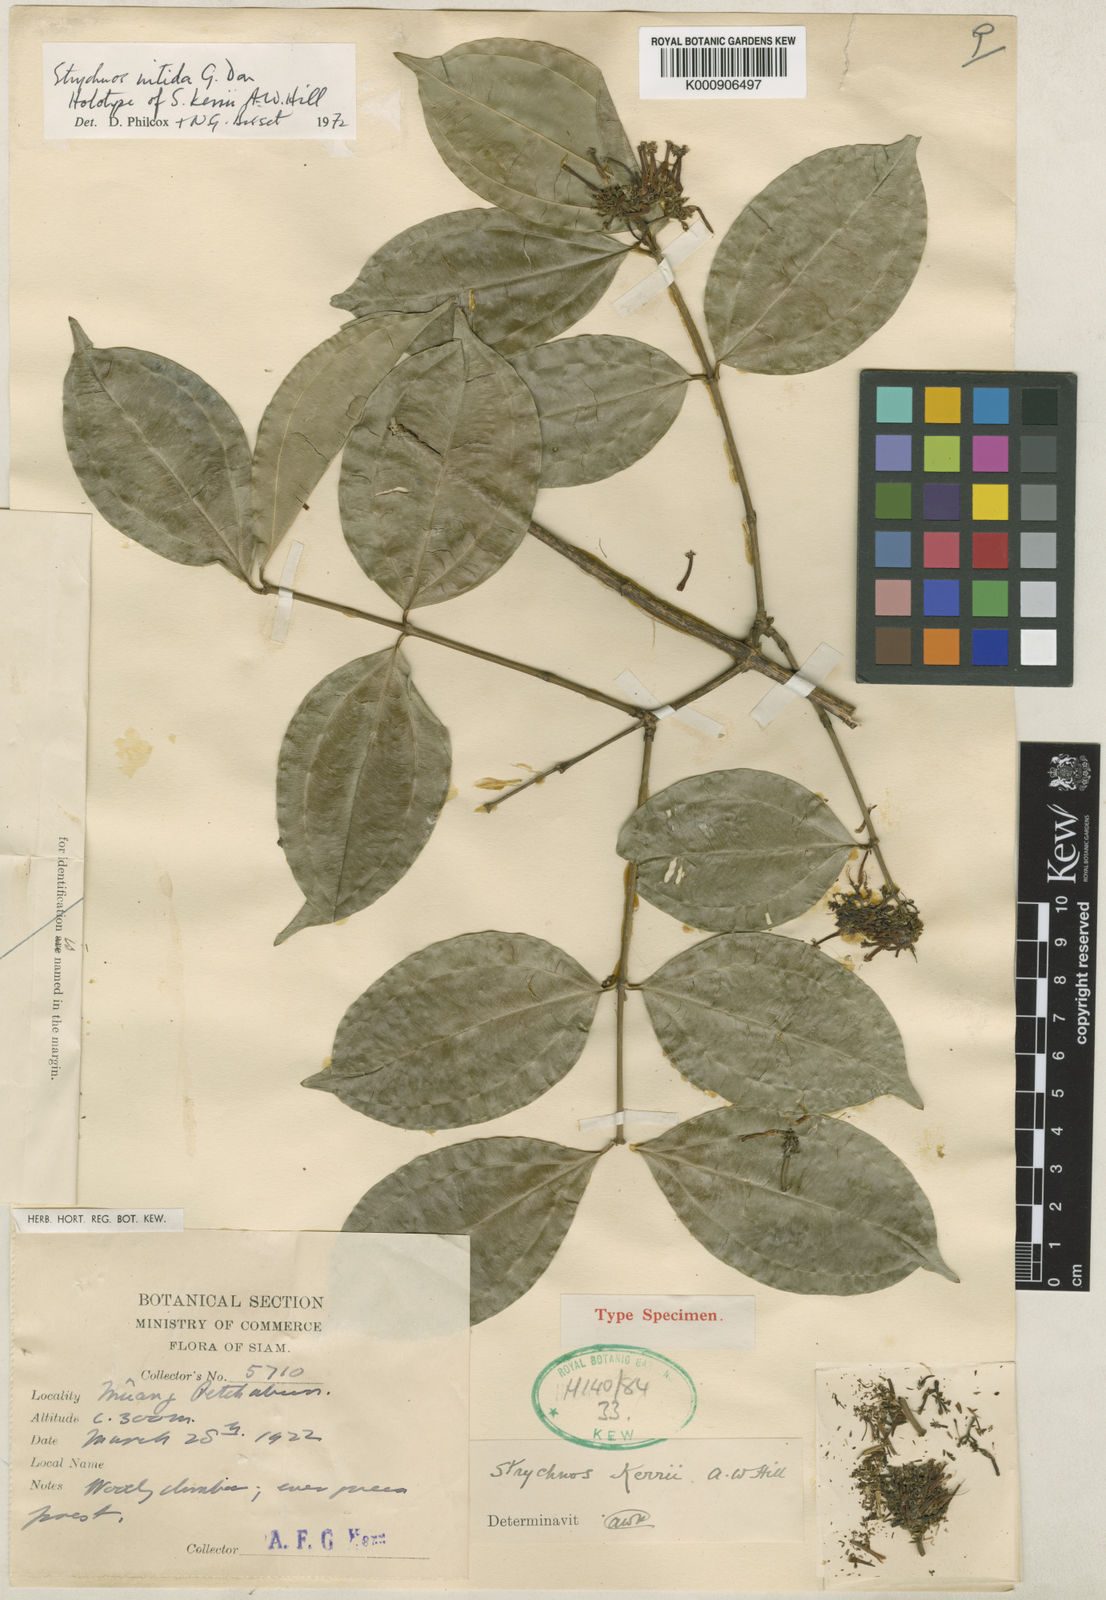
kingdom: Plantae
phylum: Tracheophyta
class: Magnoliopsida
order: Gentianales
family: Loganiaceae
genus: Strychnos
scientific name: Strychnos nitida
